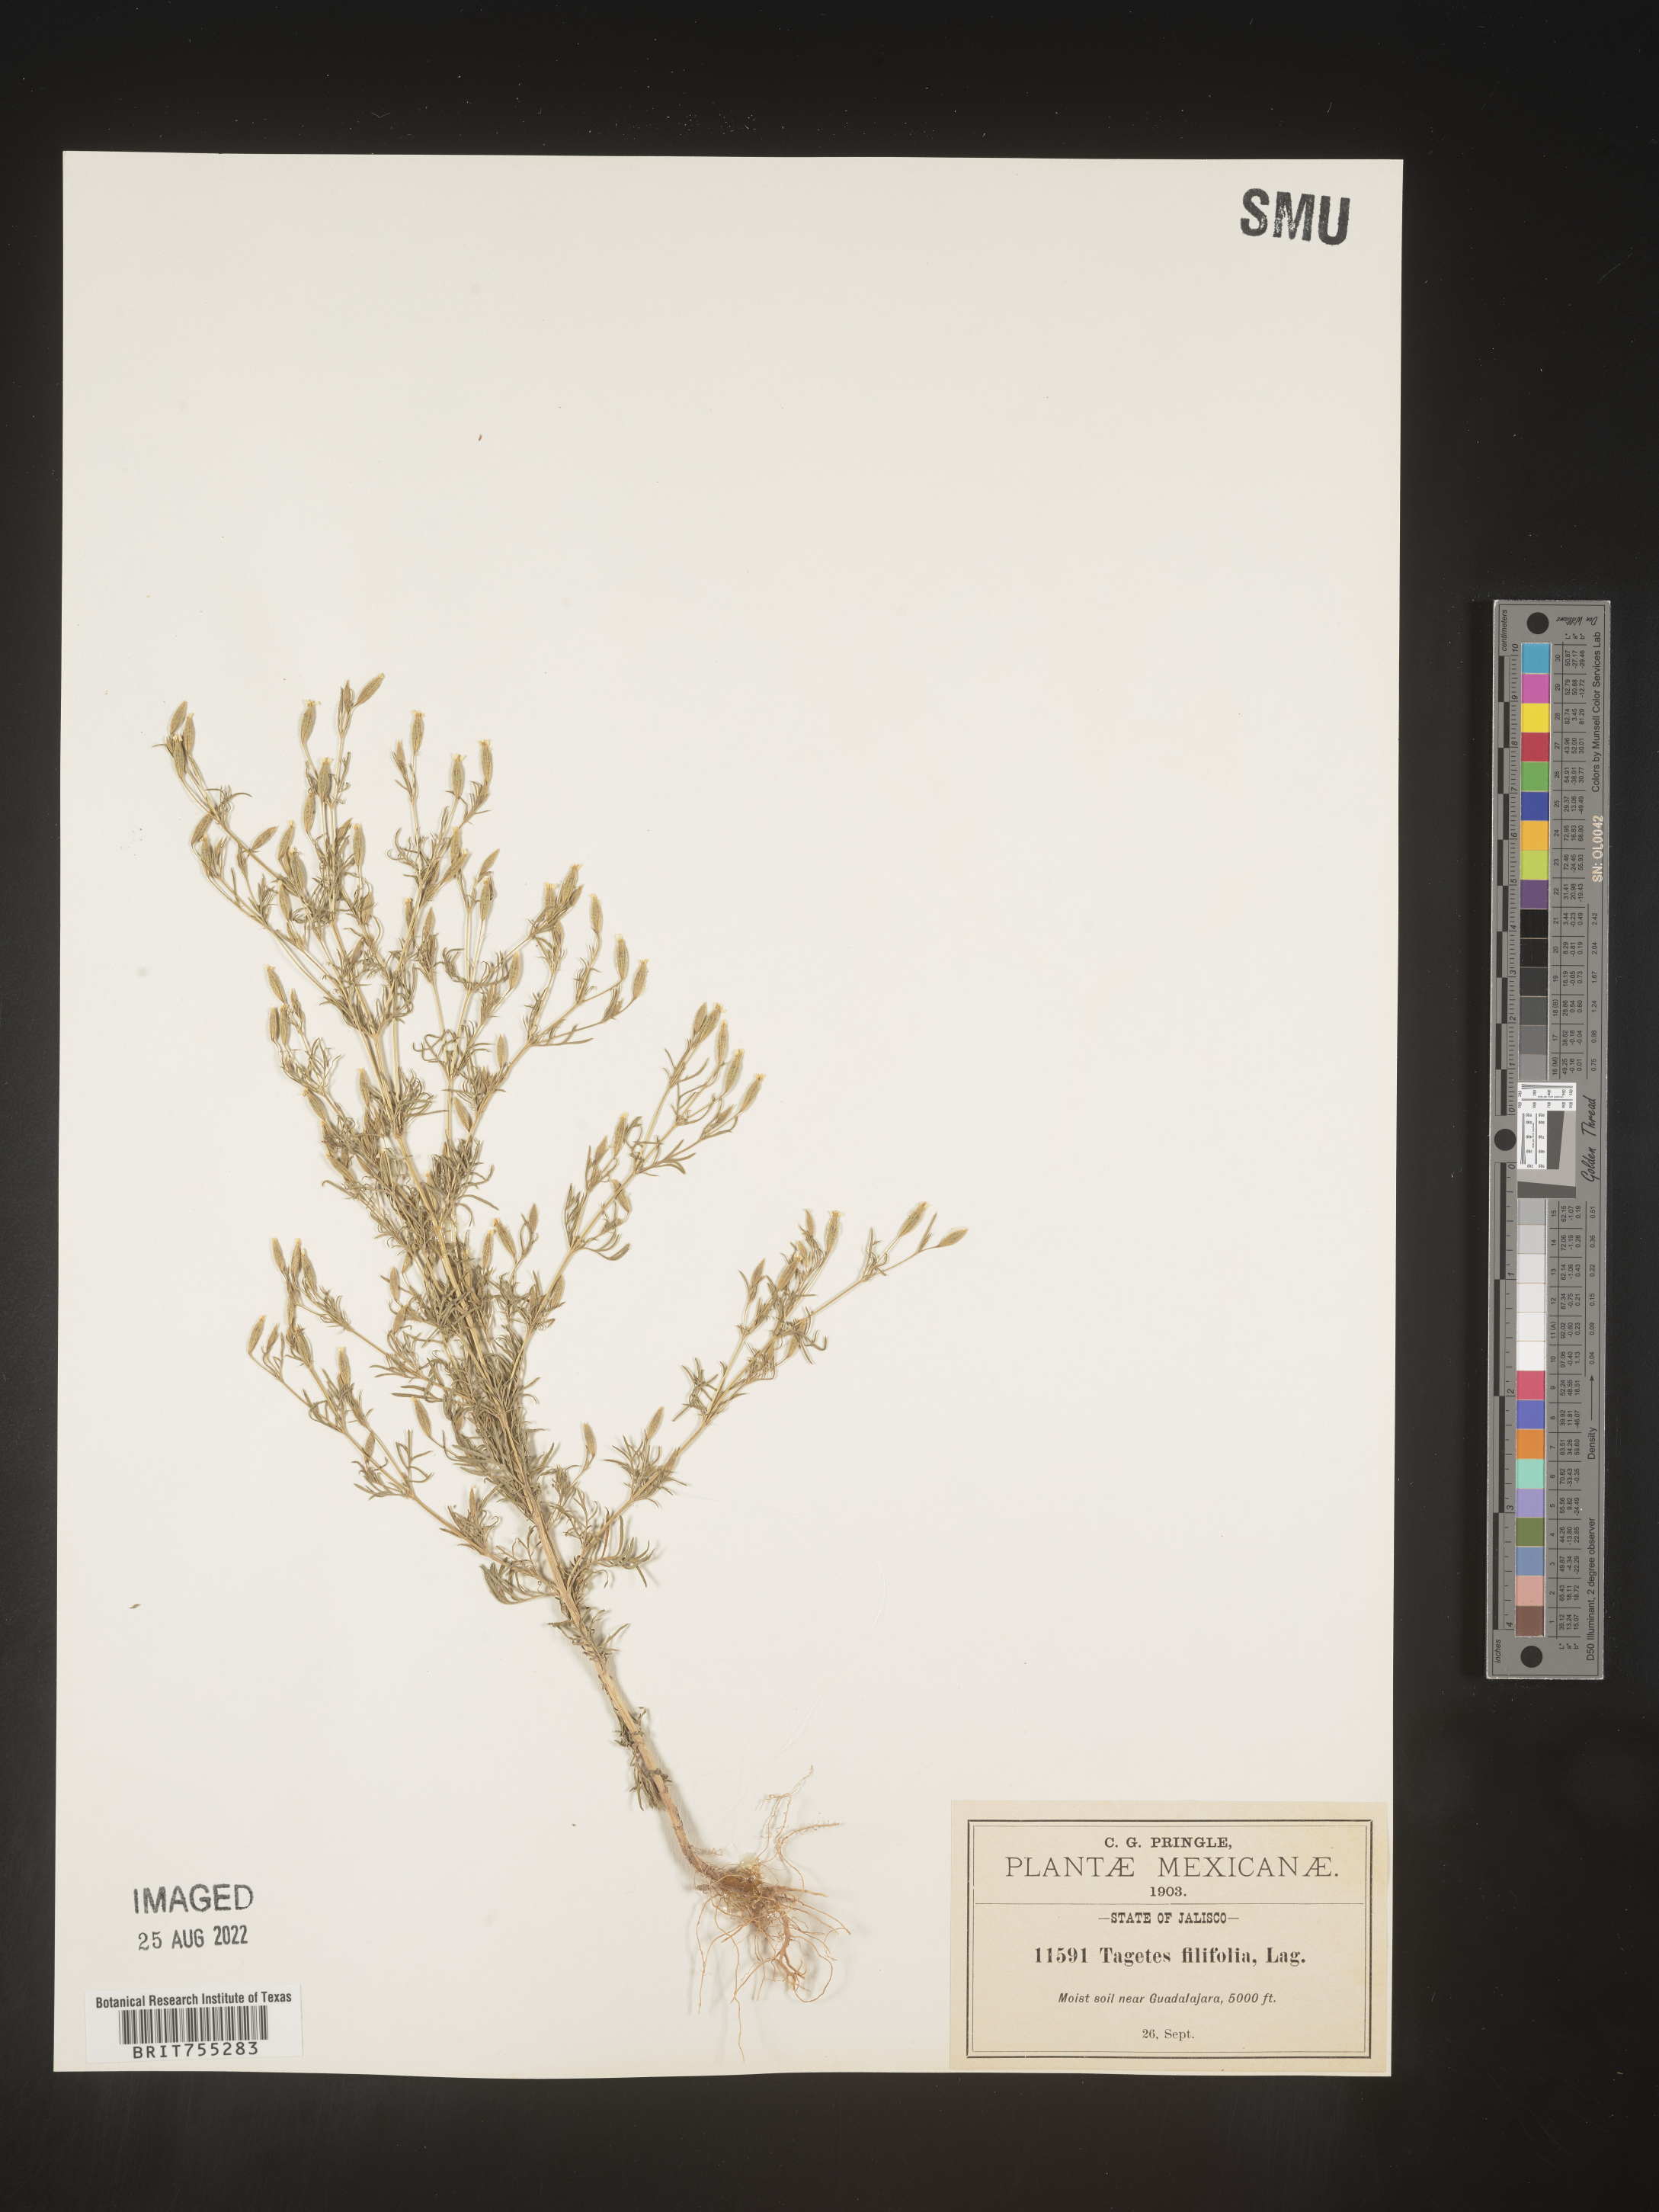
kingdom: Plantae
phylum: Tracheophyta
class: Magnoliopsida
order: Asterales
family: Asteraceae
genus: Tagetes
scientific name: Tagetes
